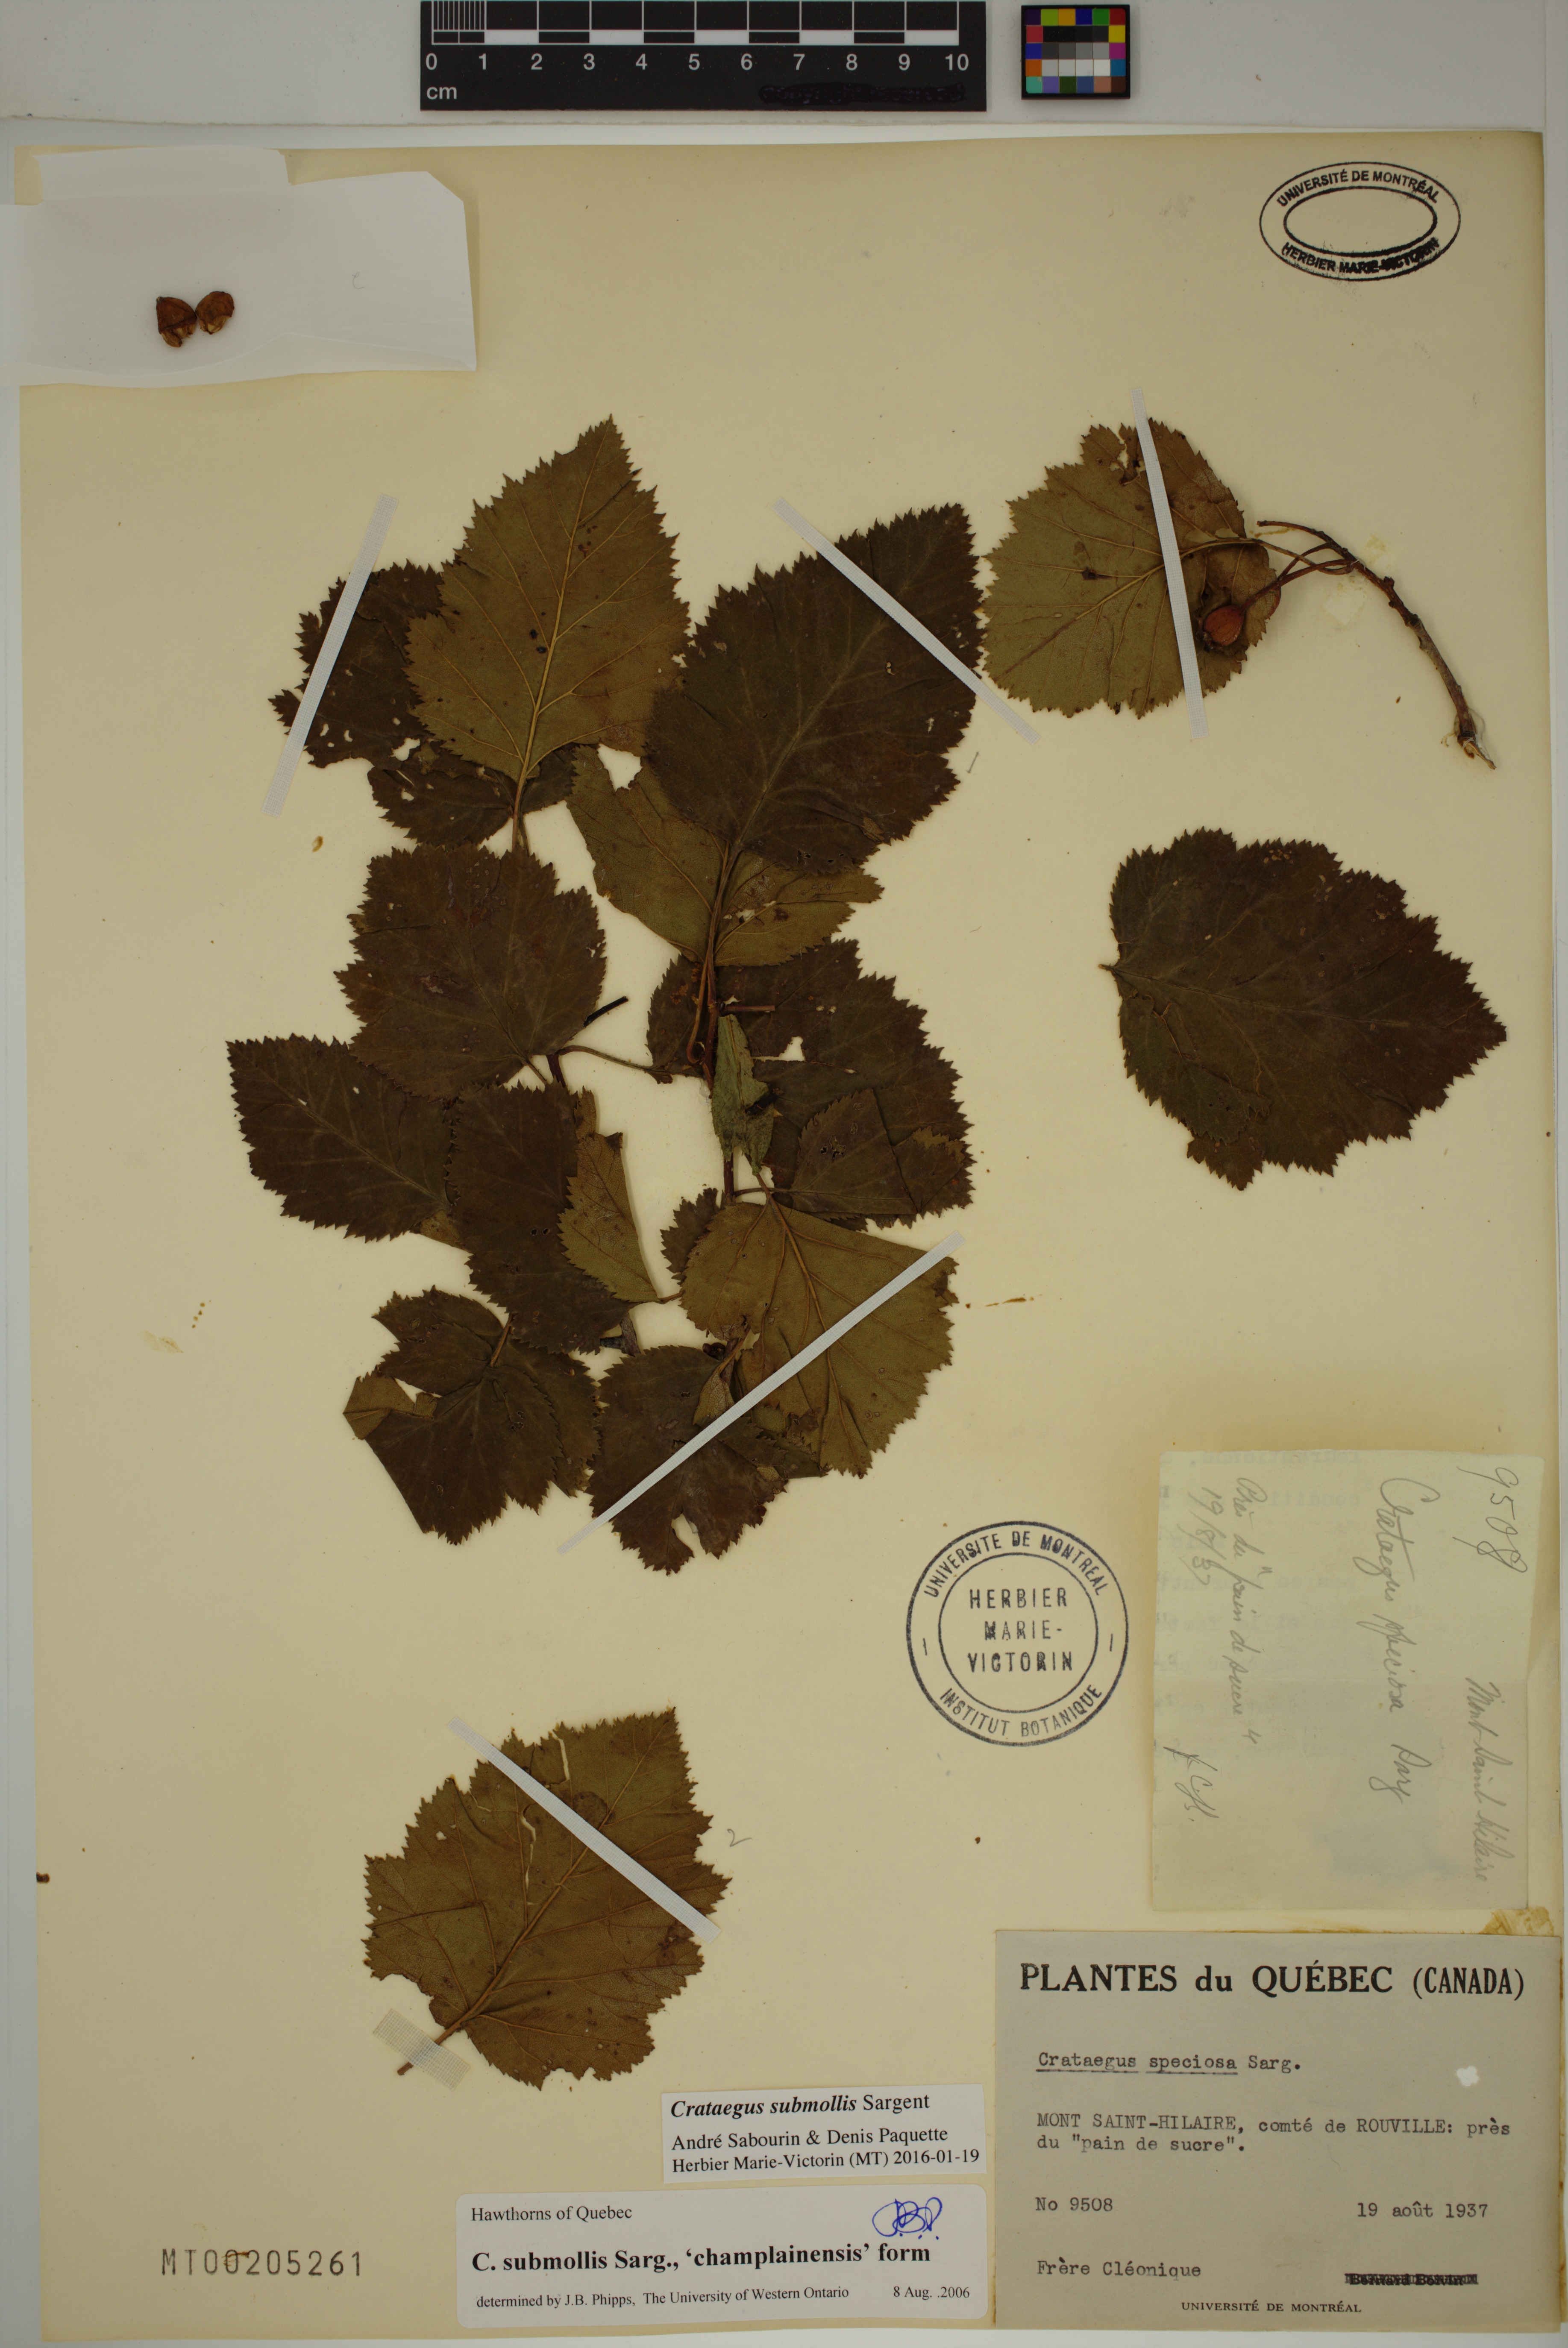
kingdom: Plantae
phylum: Tracheophyta
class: Magnoliopsida
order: Rosales
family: Rosaceae
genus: Crataegus
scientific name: Crataegus submollis
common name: Hairy cockspurthorn
